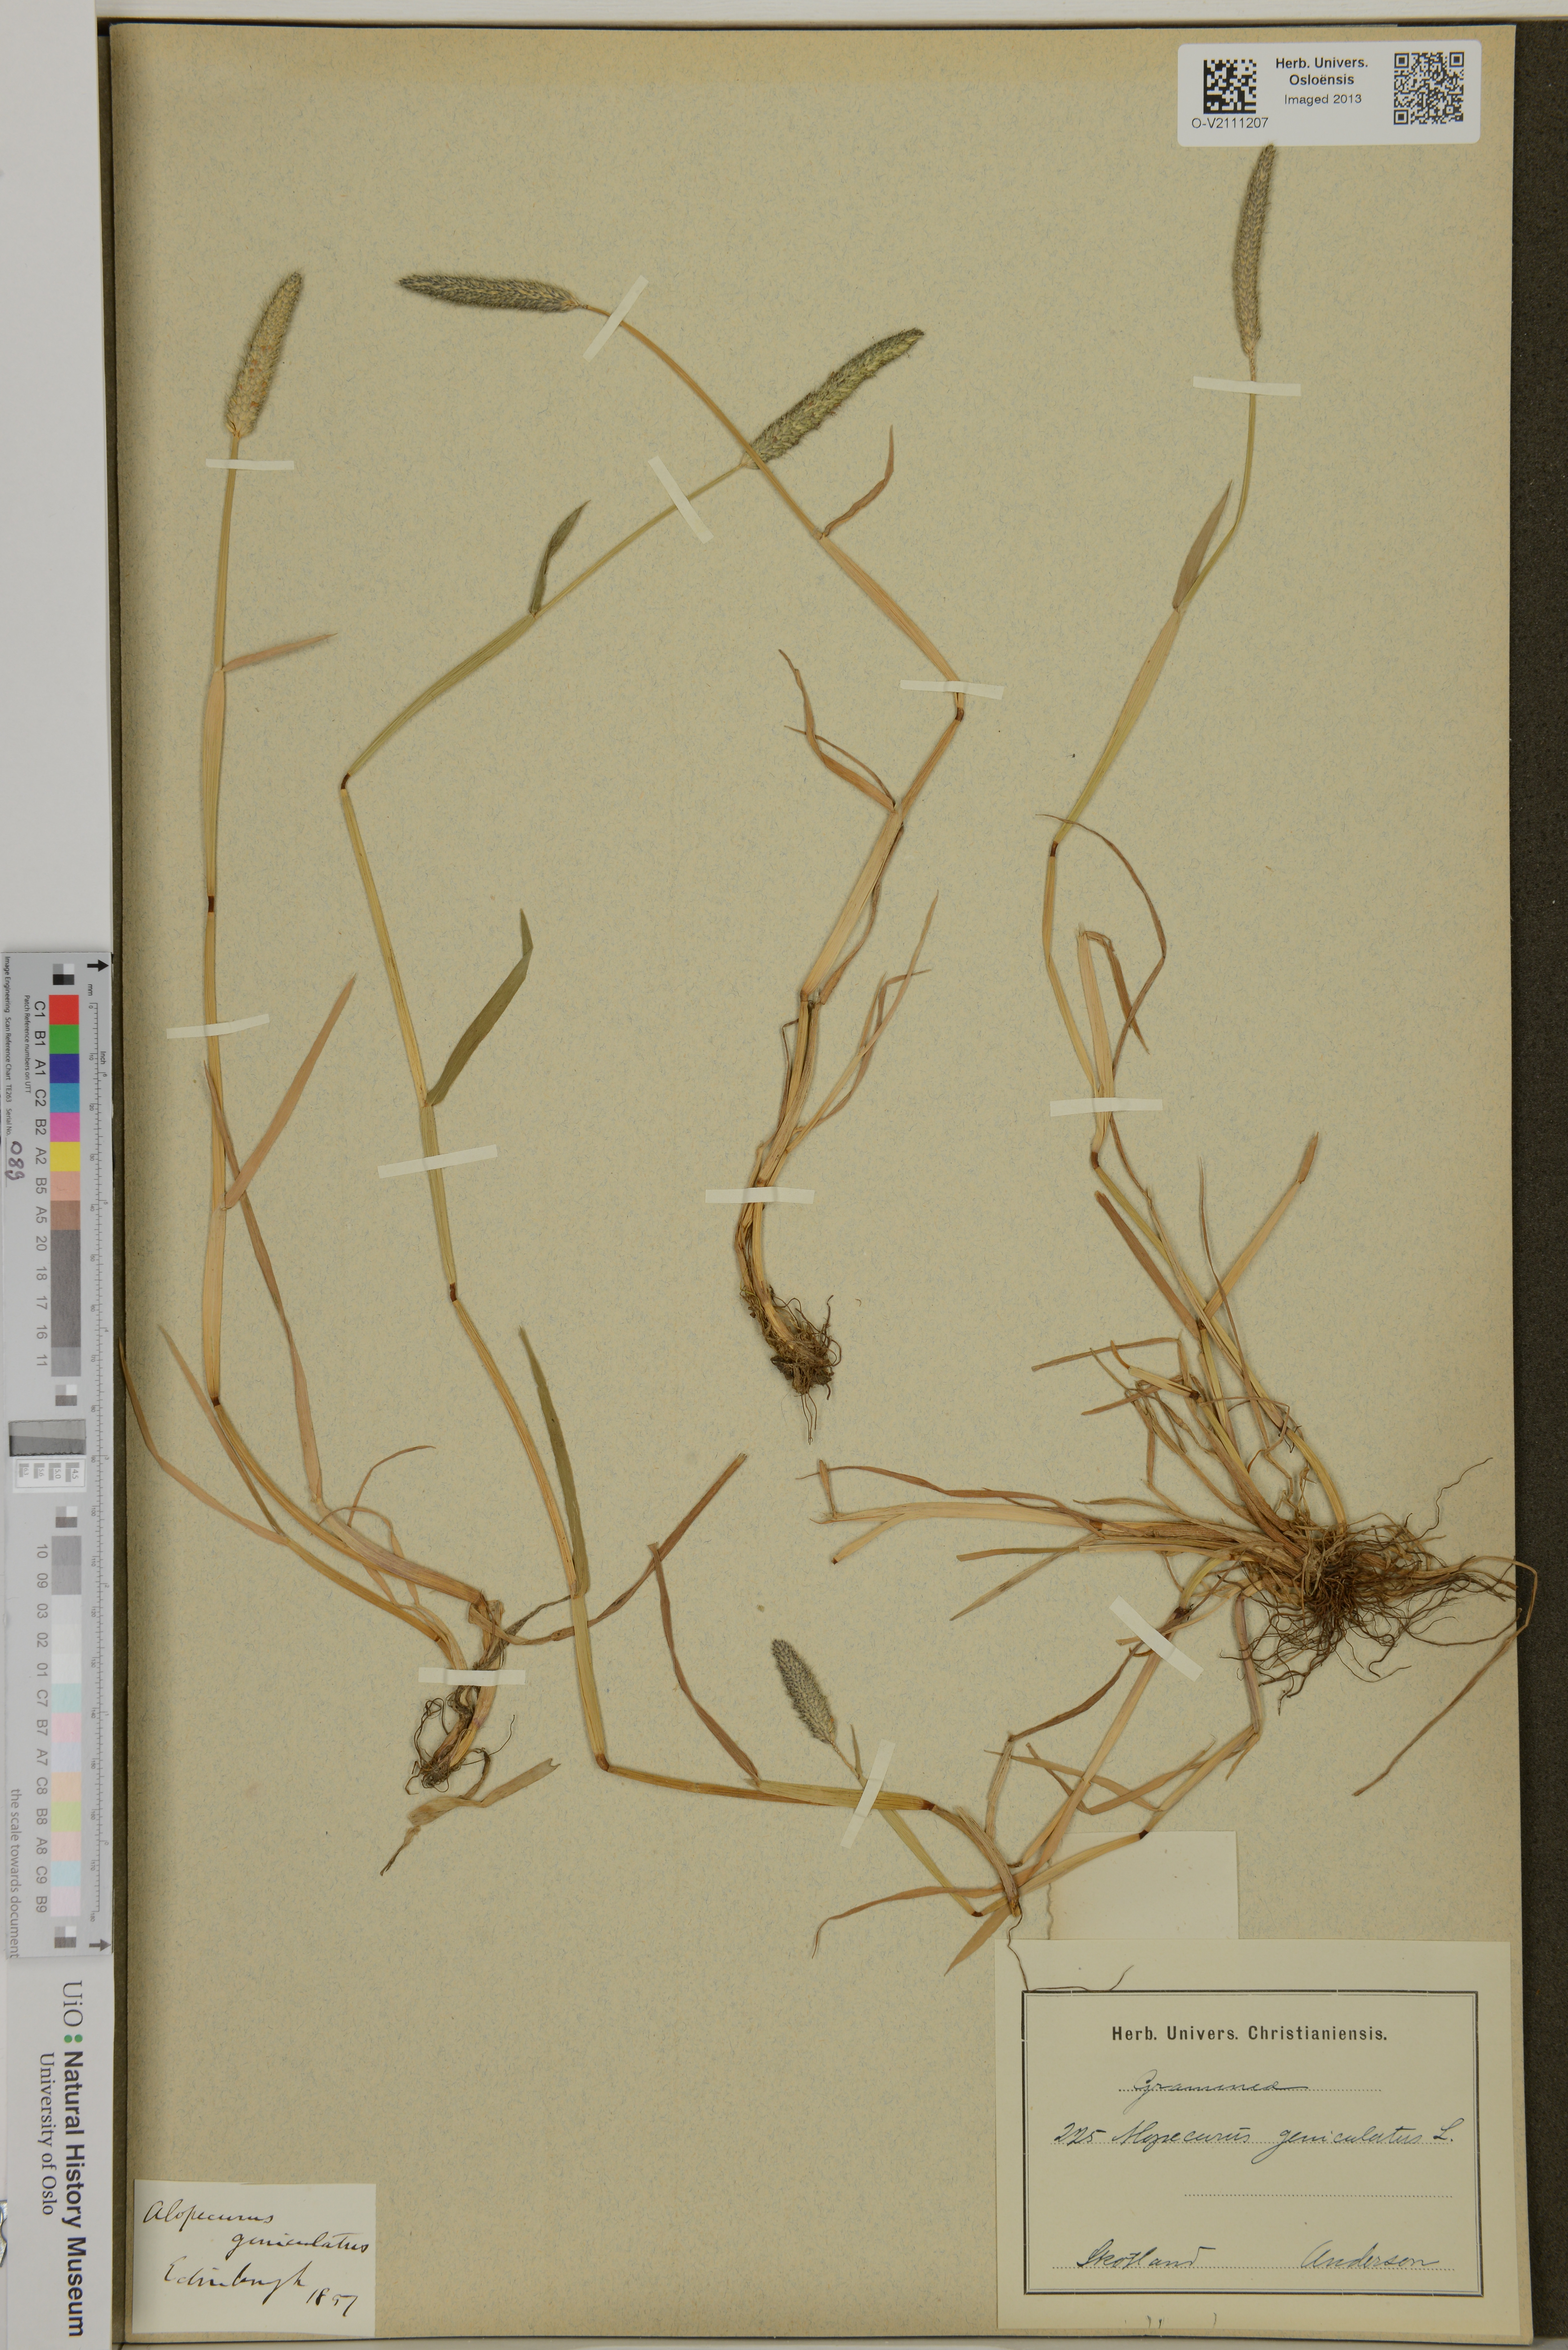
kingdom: Plantae
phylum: Tracheophyta
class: Liliopsida
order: Poales
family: Poaceae
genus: Alopecurus
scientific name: Alopecurus geniculatus
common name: Water foxtail
